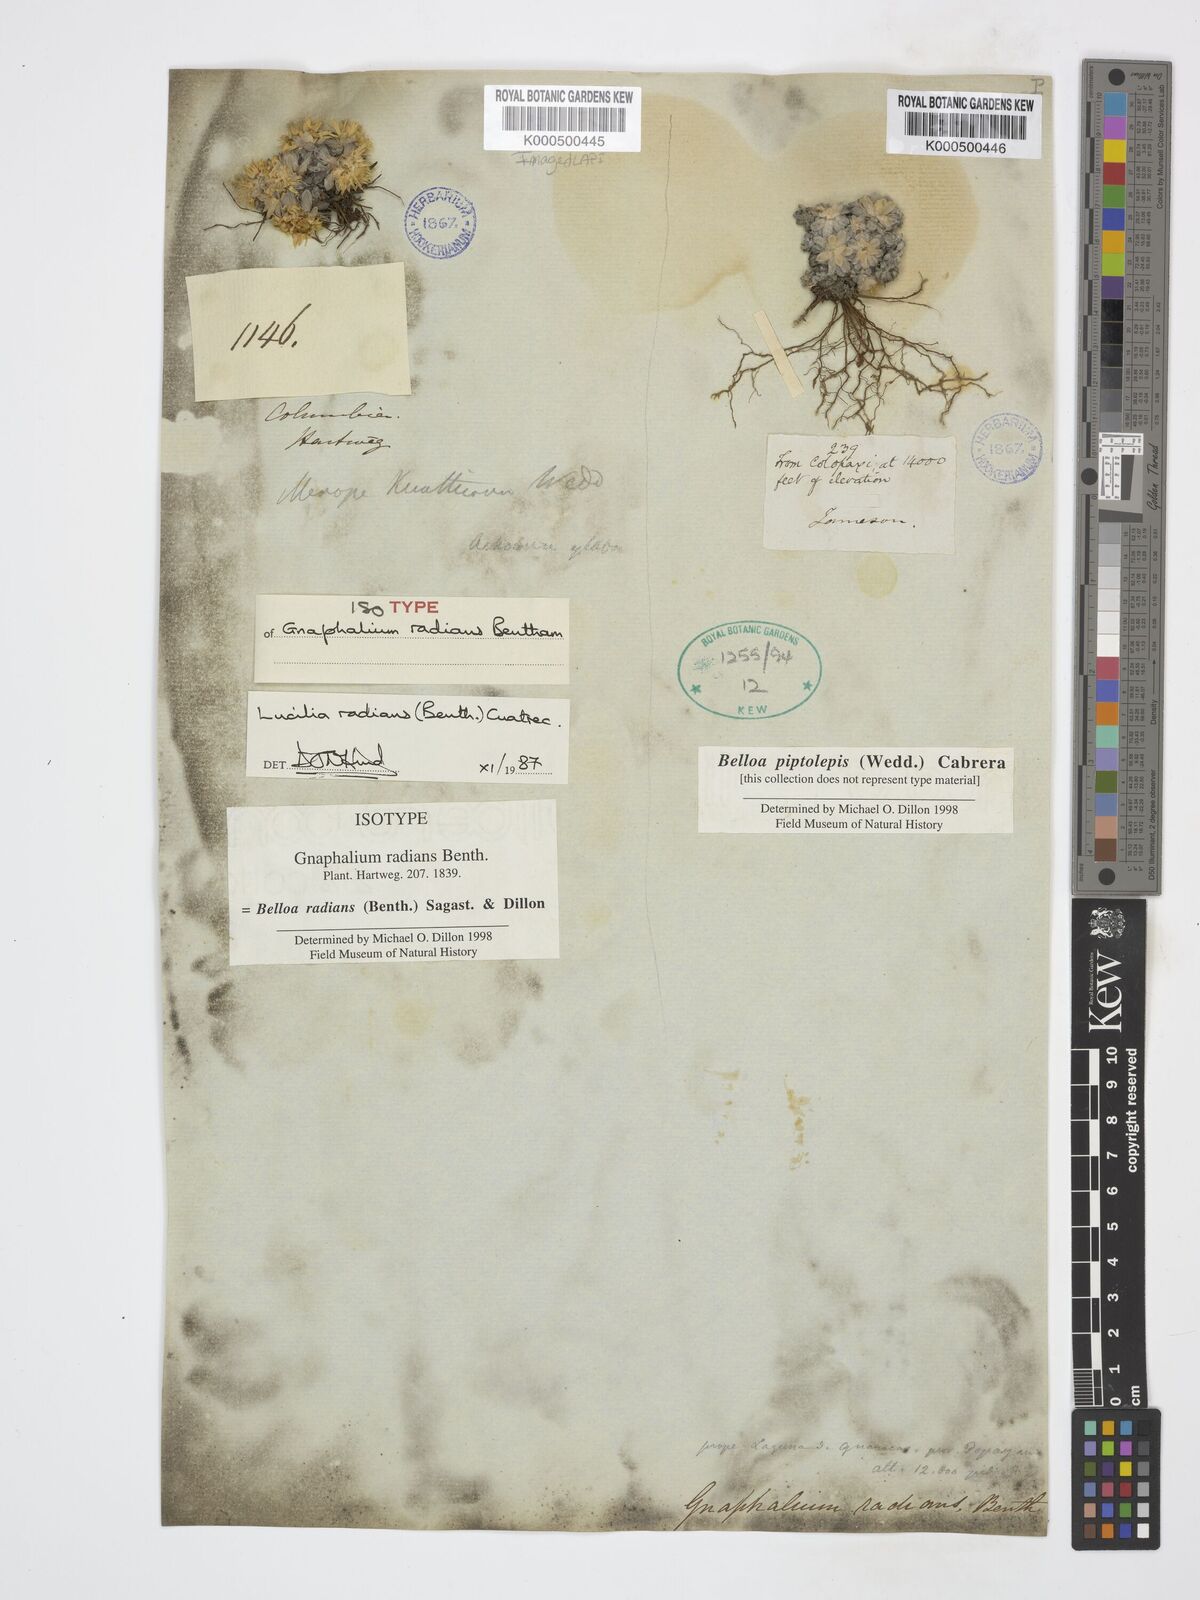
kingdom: Plantae
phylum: Tracheophyta
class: Magnoliopsida
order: Asterales
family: Asteraceae
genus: Belloa
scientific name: Belloa
